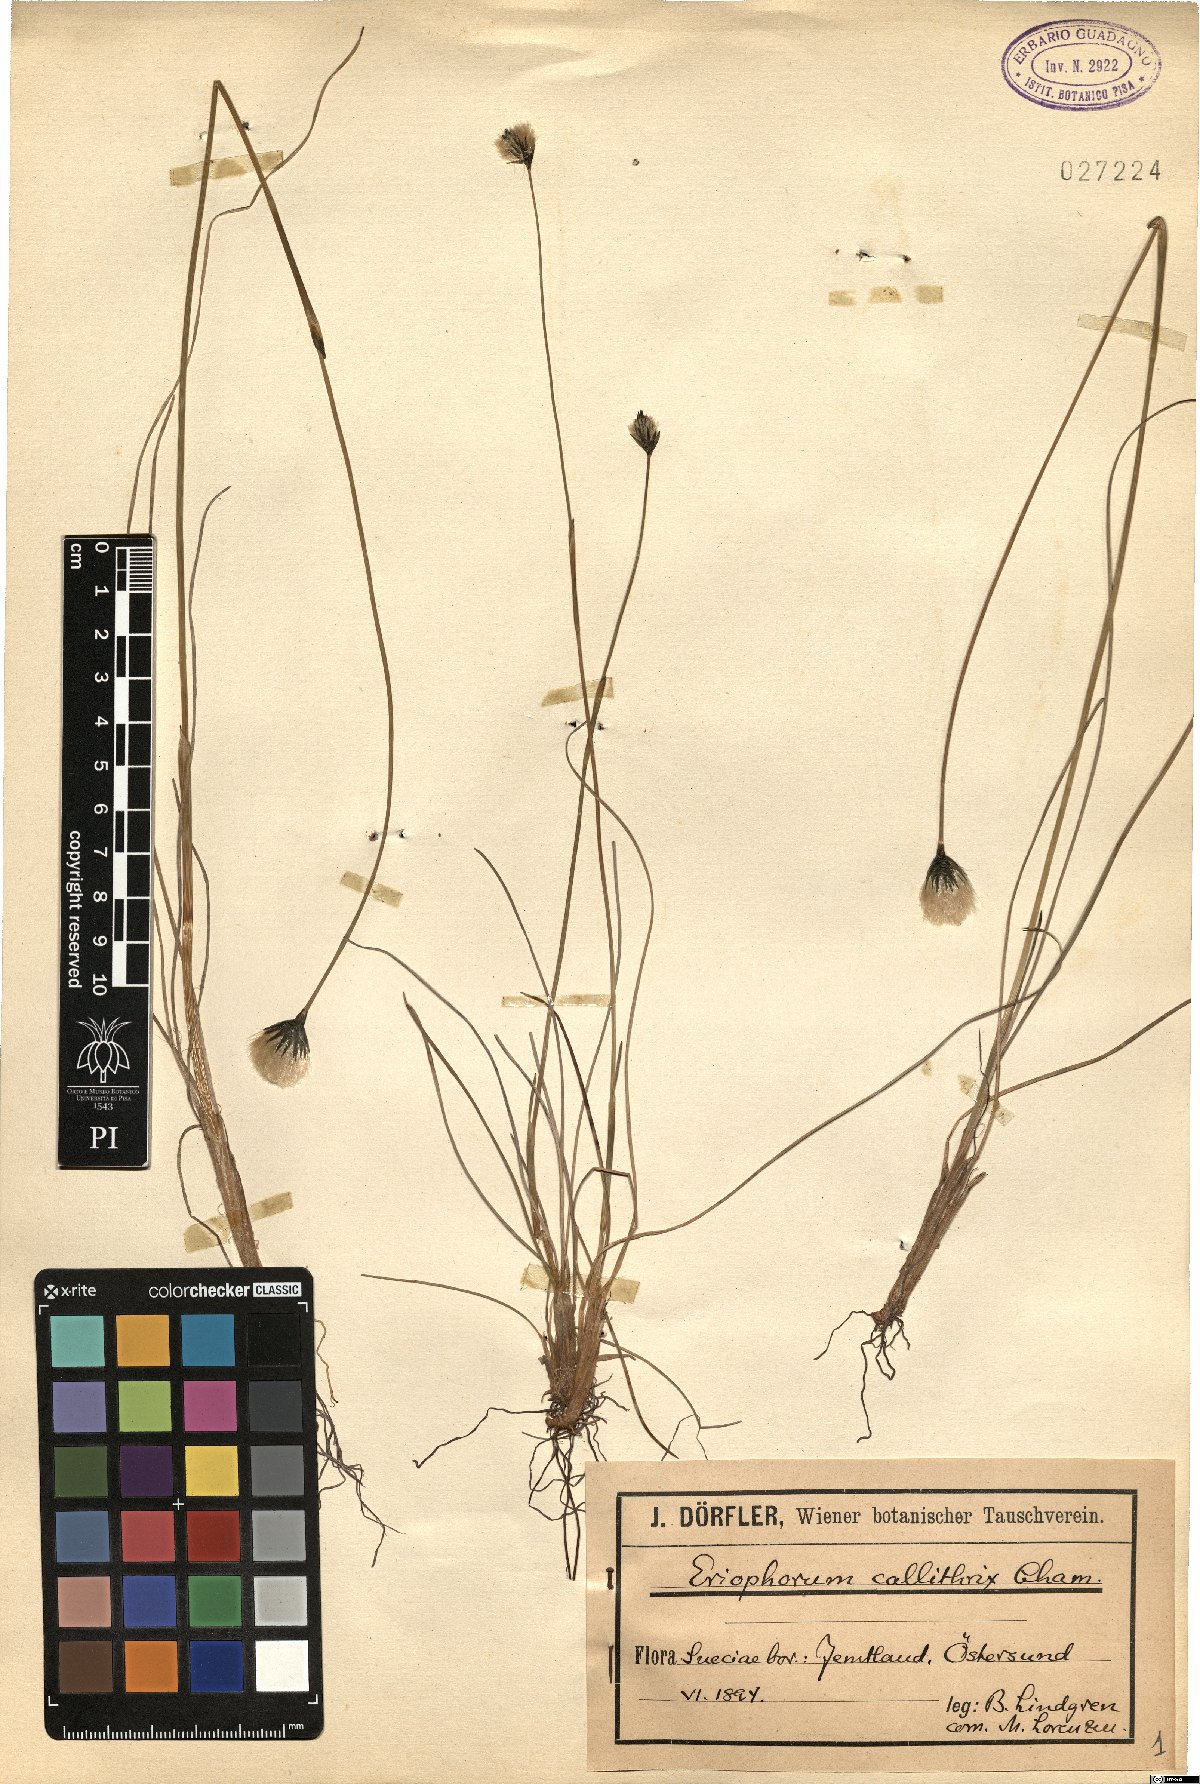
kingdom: Plantae
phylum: Tracheophyta
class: Liliopsida
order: Poales
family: Cyperaceae
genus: Eriophorum
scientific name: Eriophorum callitrix
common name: Arctic cottongrass
